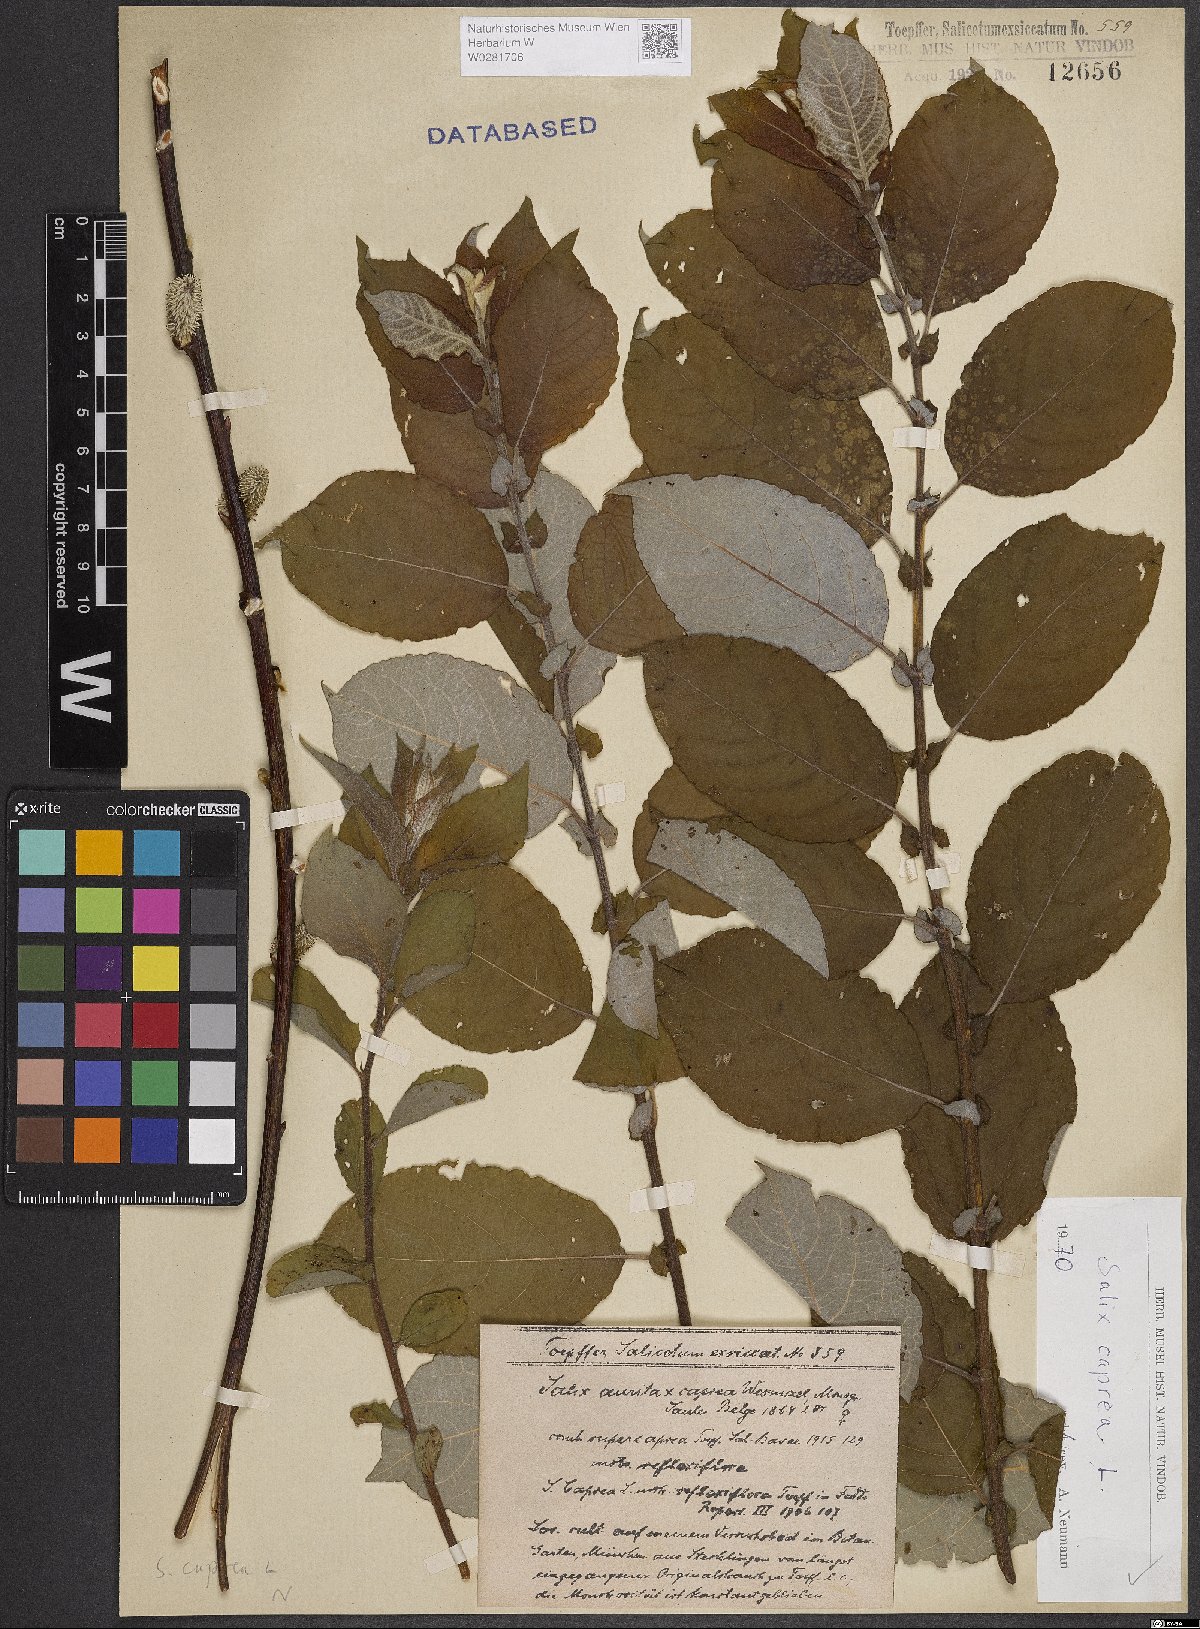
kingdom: Plantae
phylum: Tracheophyta
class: Magnoliopsida
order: Malpighiales
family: Salicaceae
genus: Salix
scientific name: Salix caprea
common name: Goat willow
